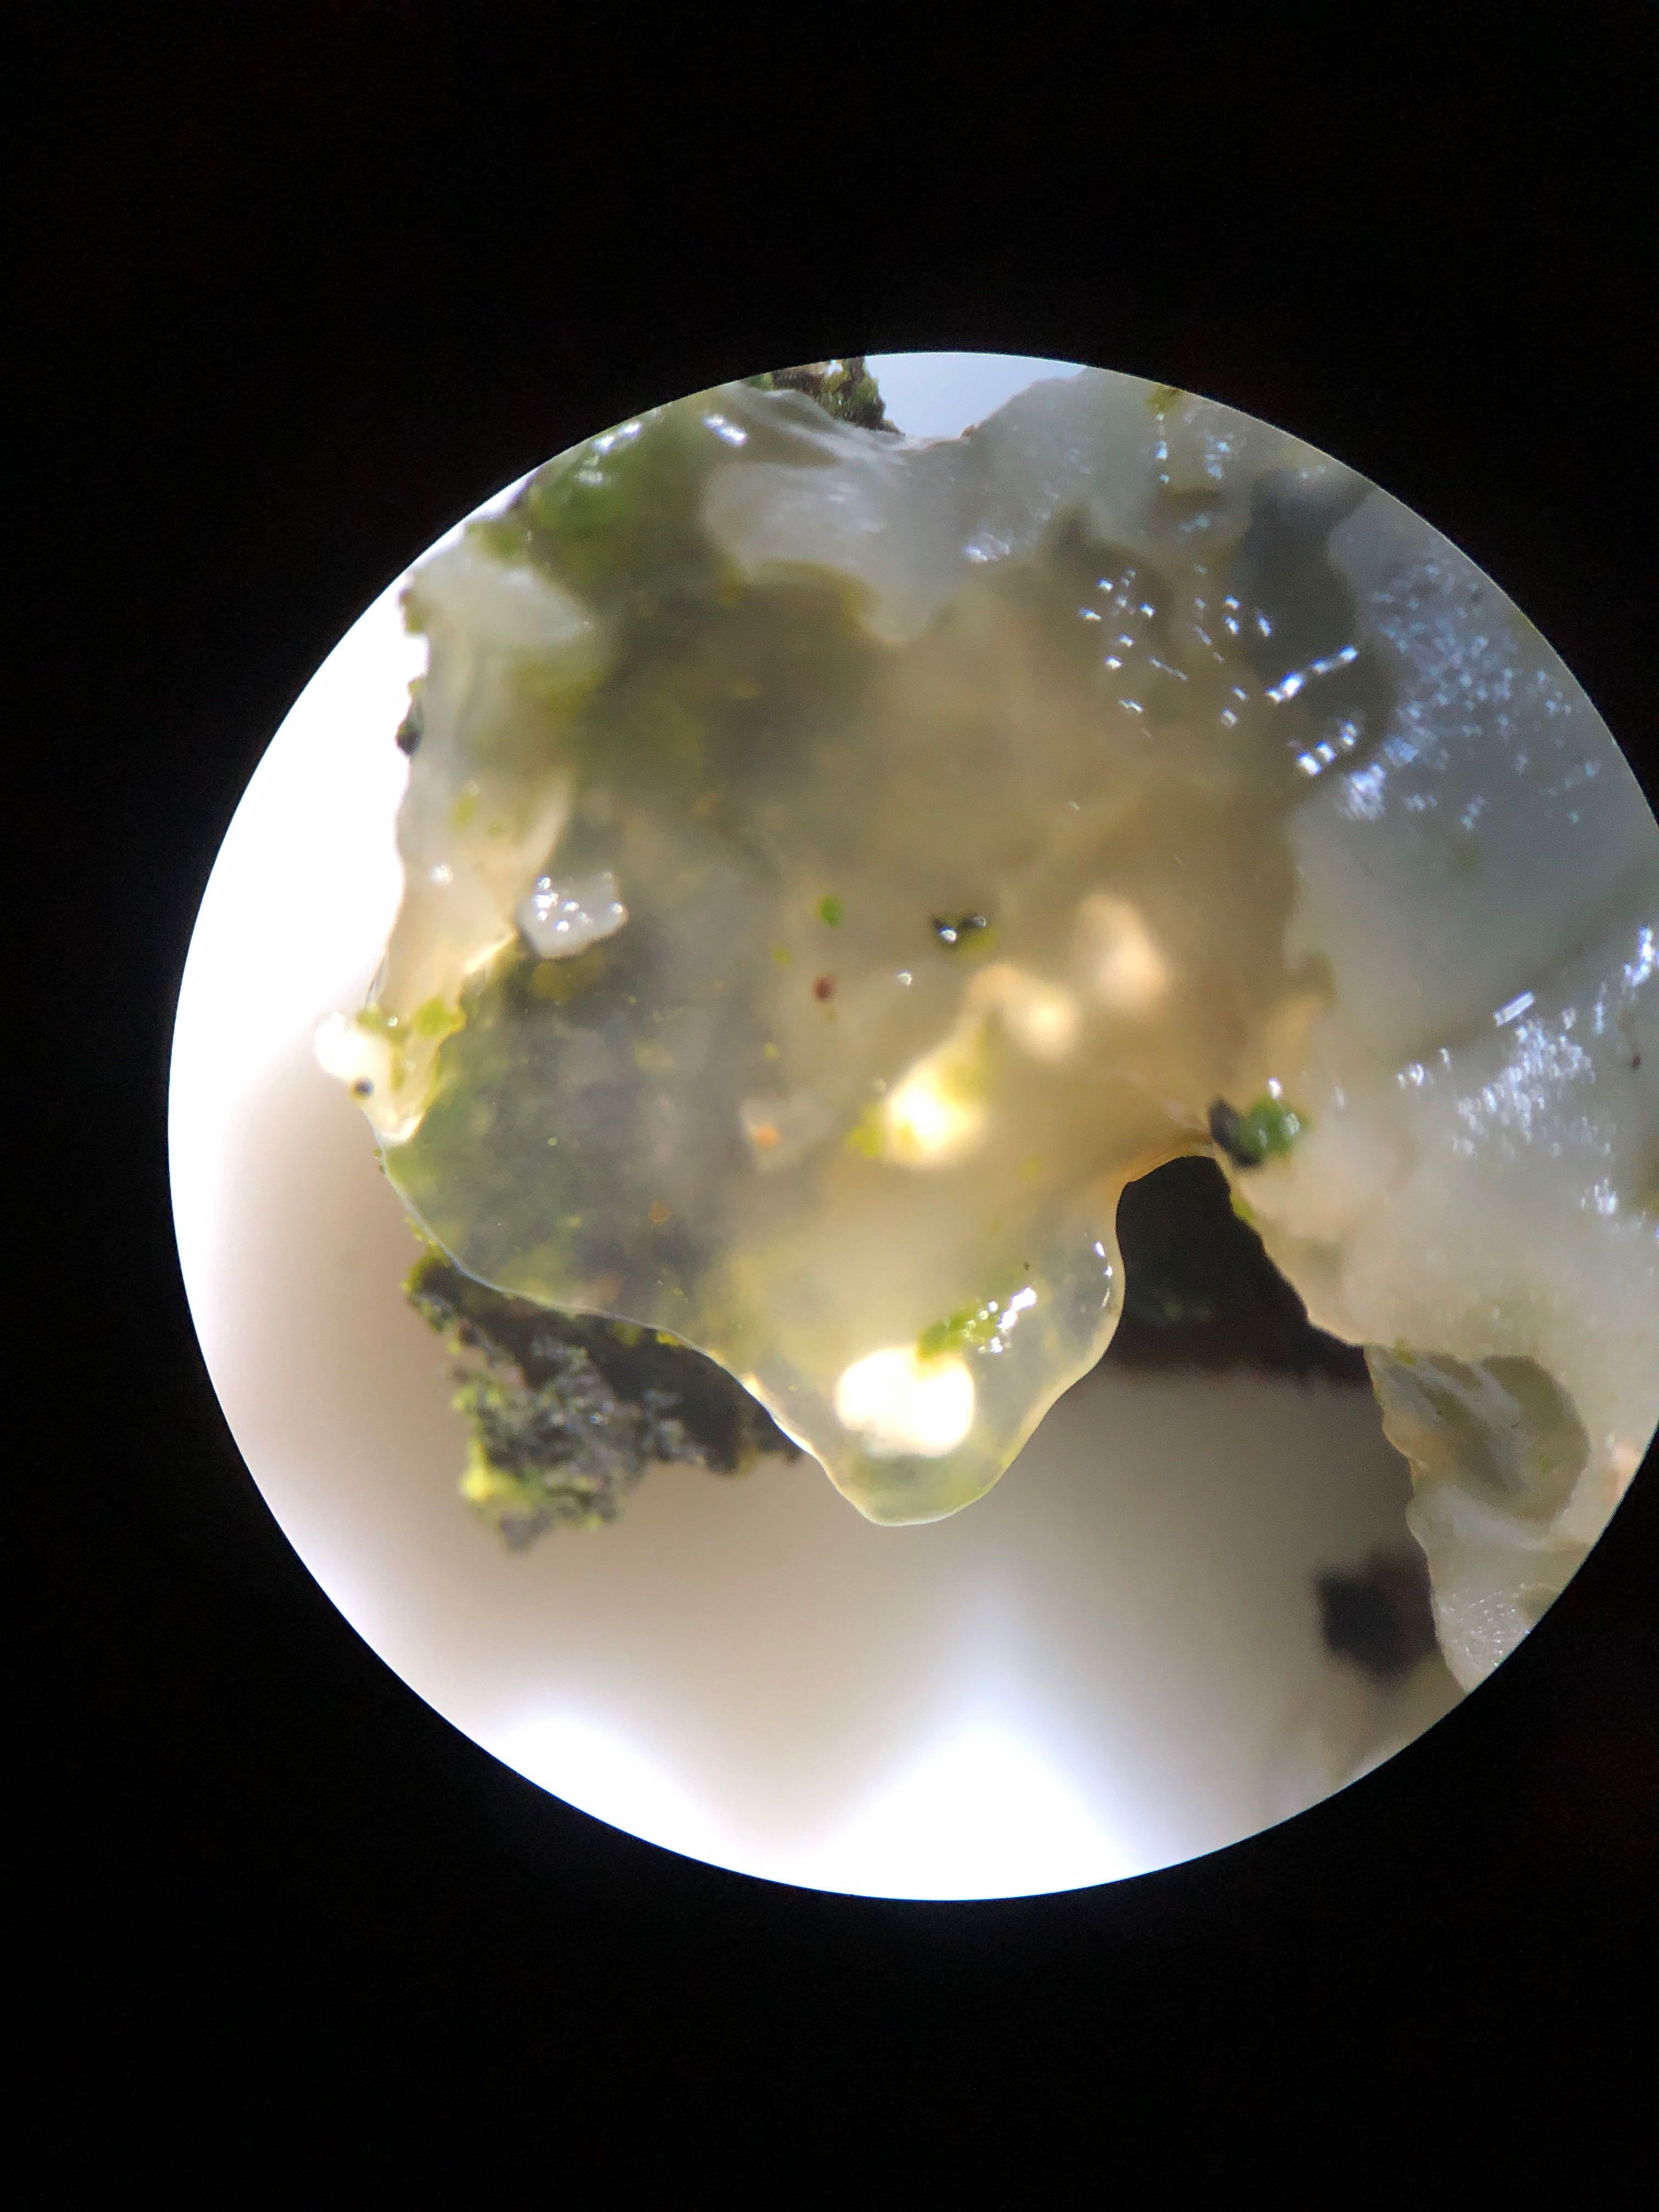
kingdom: Fungi
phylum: Basidiomycota
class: Agaricomycetes
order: Auriculariales
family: Hyaloriaceae
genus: Myxarium
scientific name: Myxarium hyalinum
